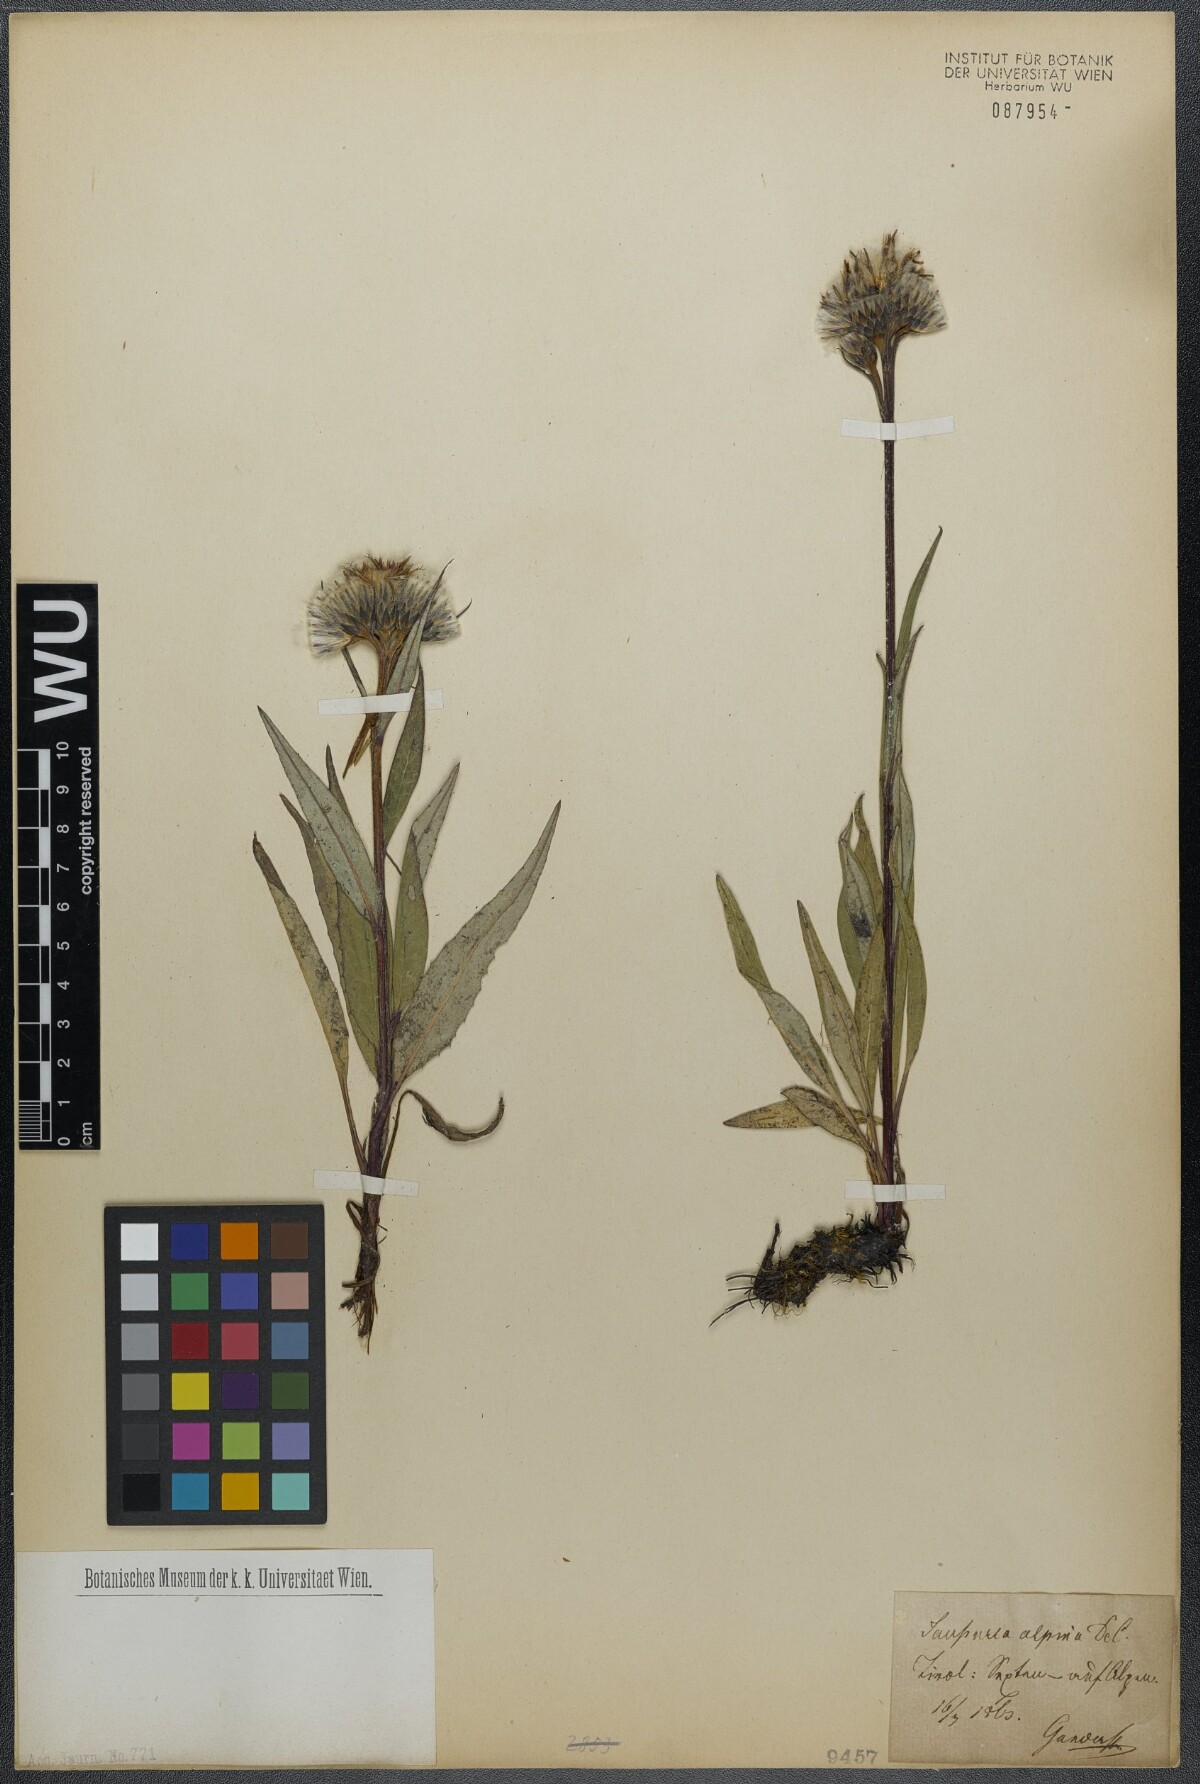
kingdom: Plantae
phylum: Tracheophyta
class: Magnoliopsida
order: Asterales
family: Asteraceae
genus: Saussurea
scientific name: Saussurea alpina
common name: Alpine saw-wort
